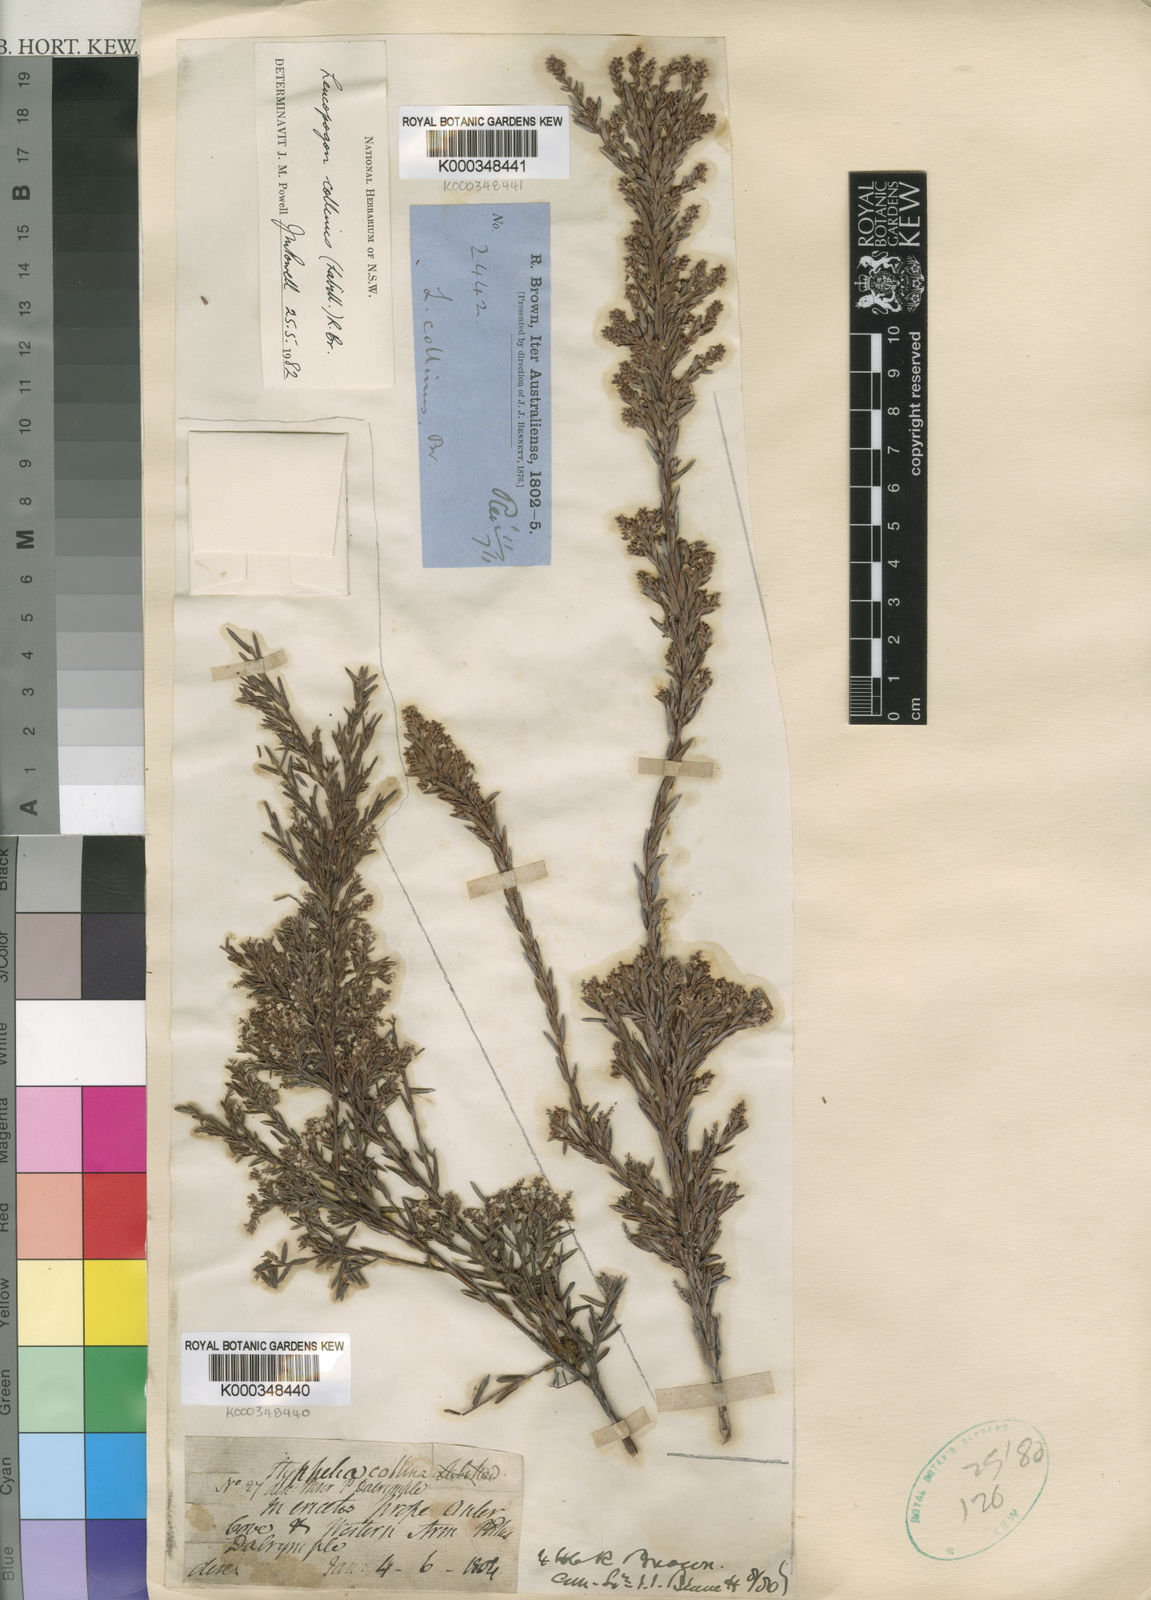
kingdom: Plantae
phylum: Tracheophyta
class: Magnoliopsida
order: Ericales
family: Ericaceae
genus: Leucopogon
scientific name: Leucopogon collinus
